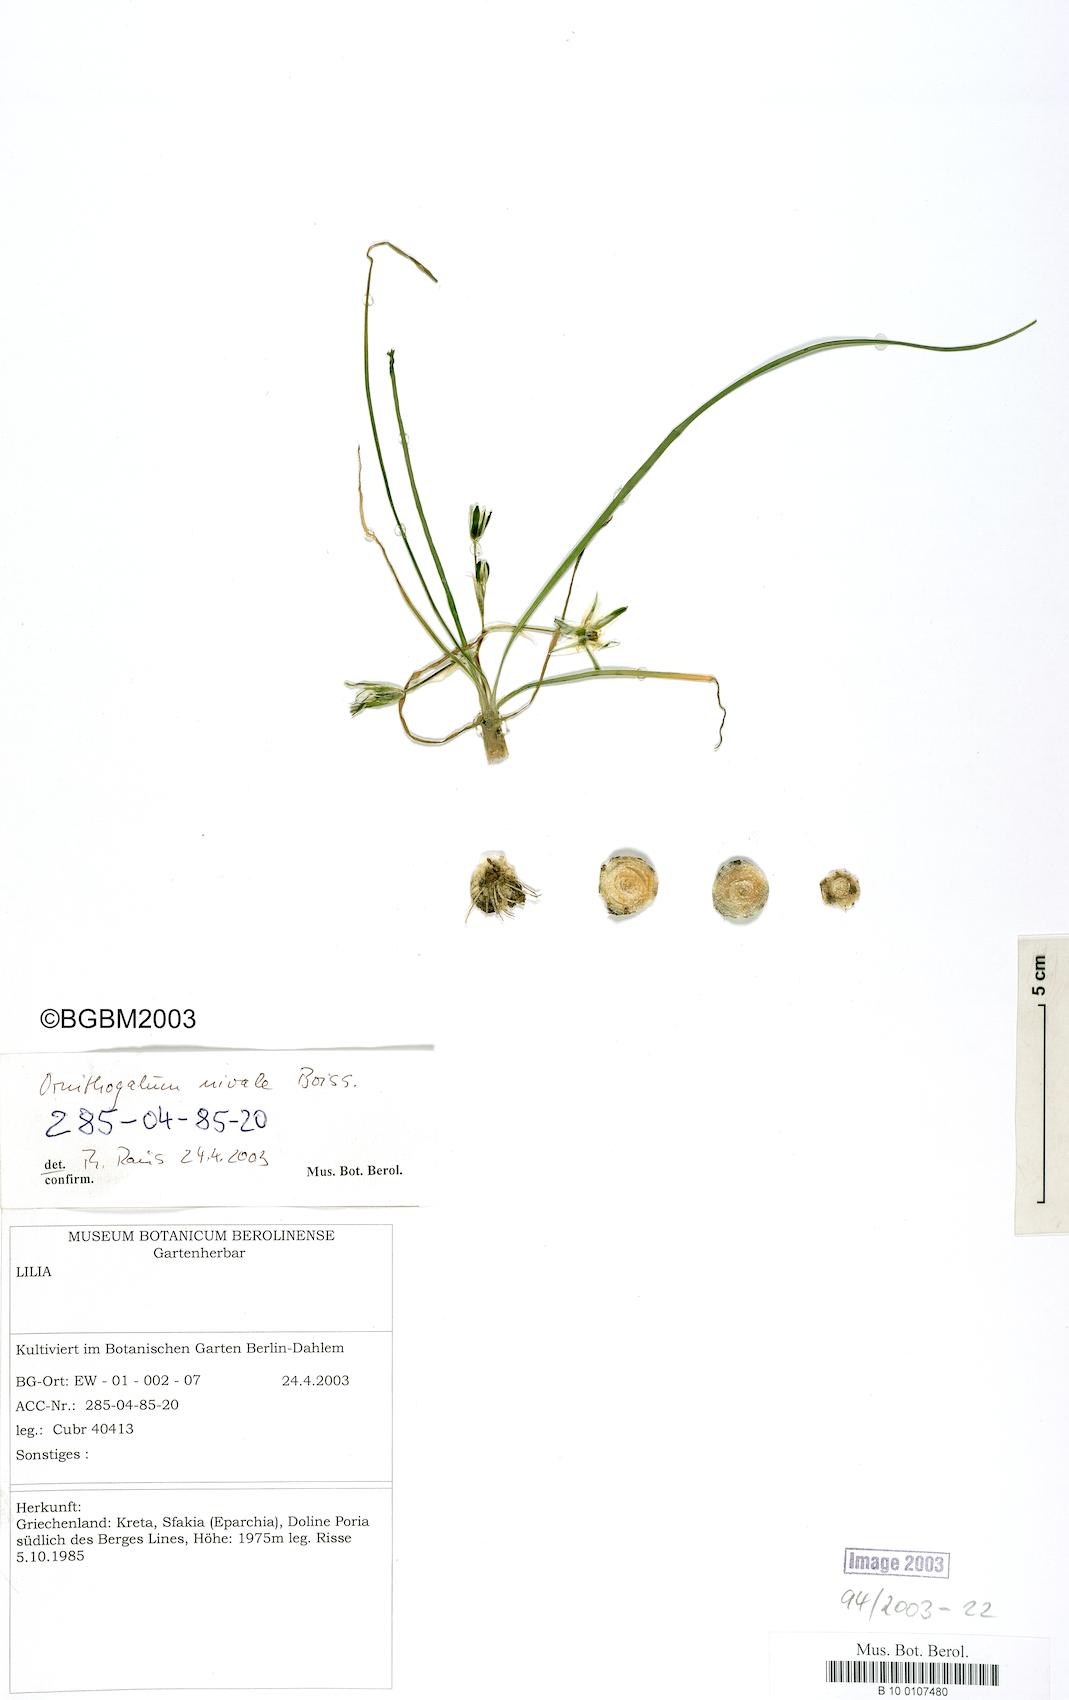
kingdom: Plantae
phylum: Tracheophyta
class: Liliopsida
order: Asparagales
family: Asparagaceae
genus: Ornithogalum
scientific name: Ornithogalum nivale
